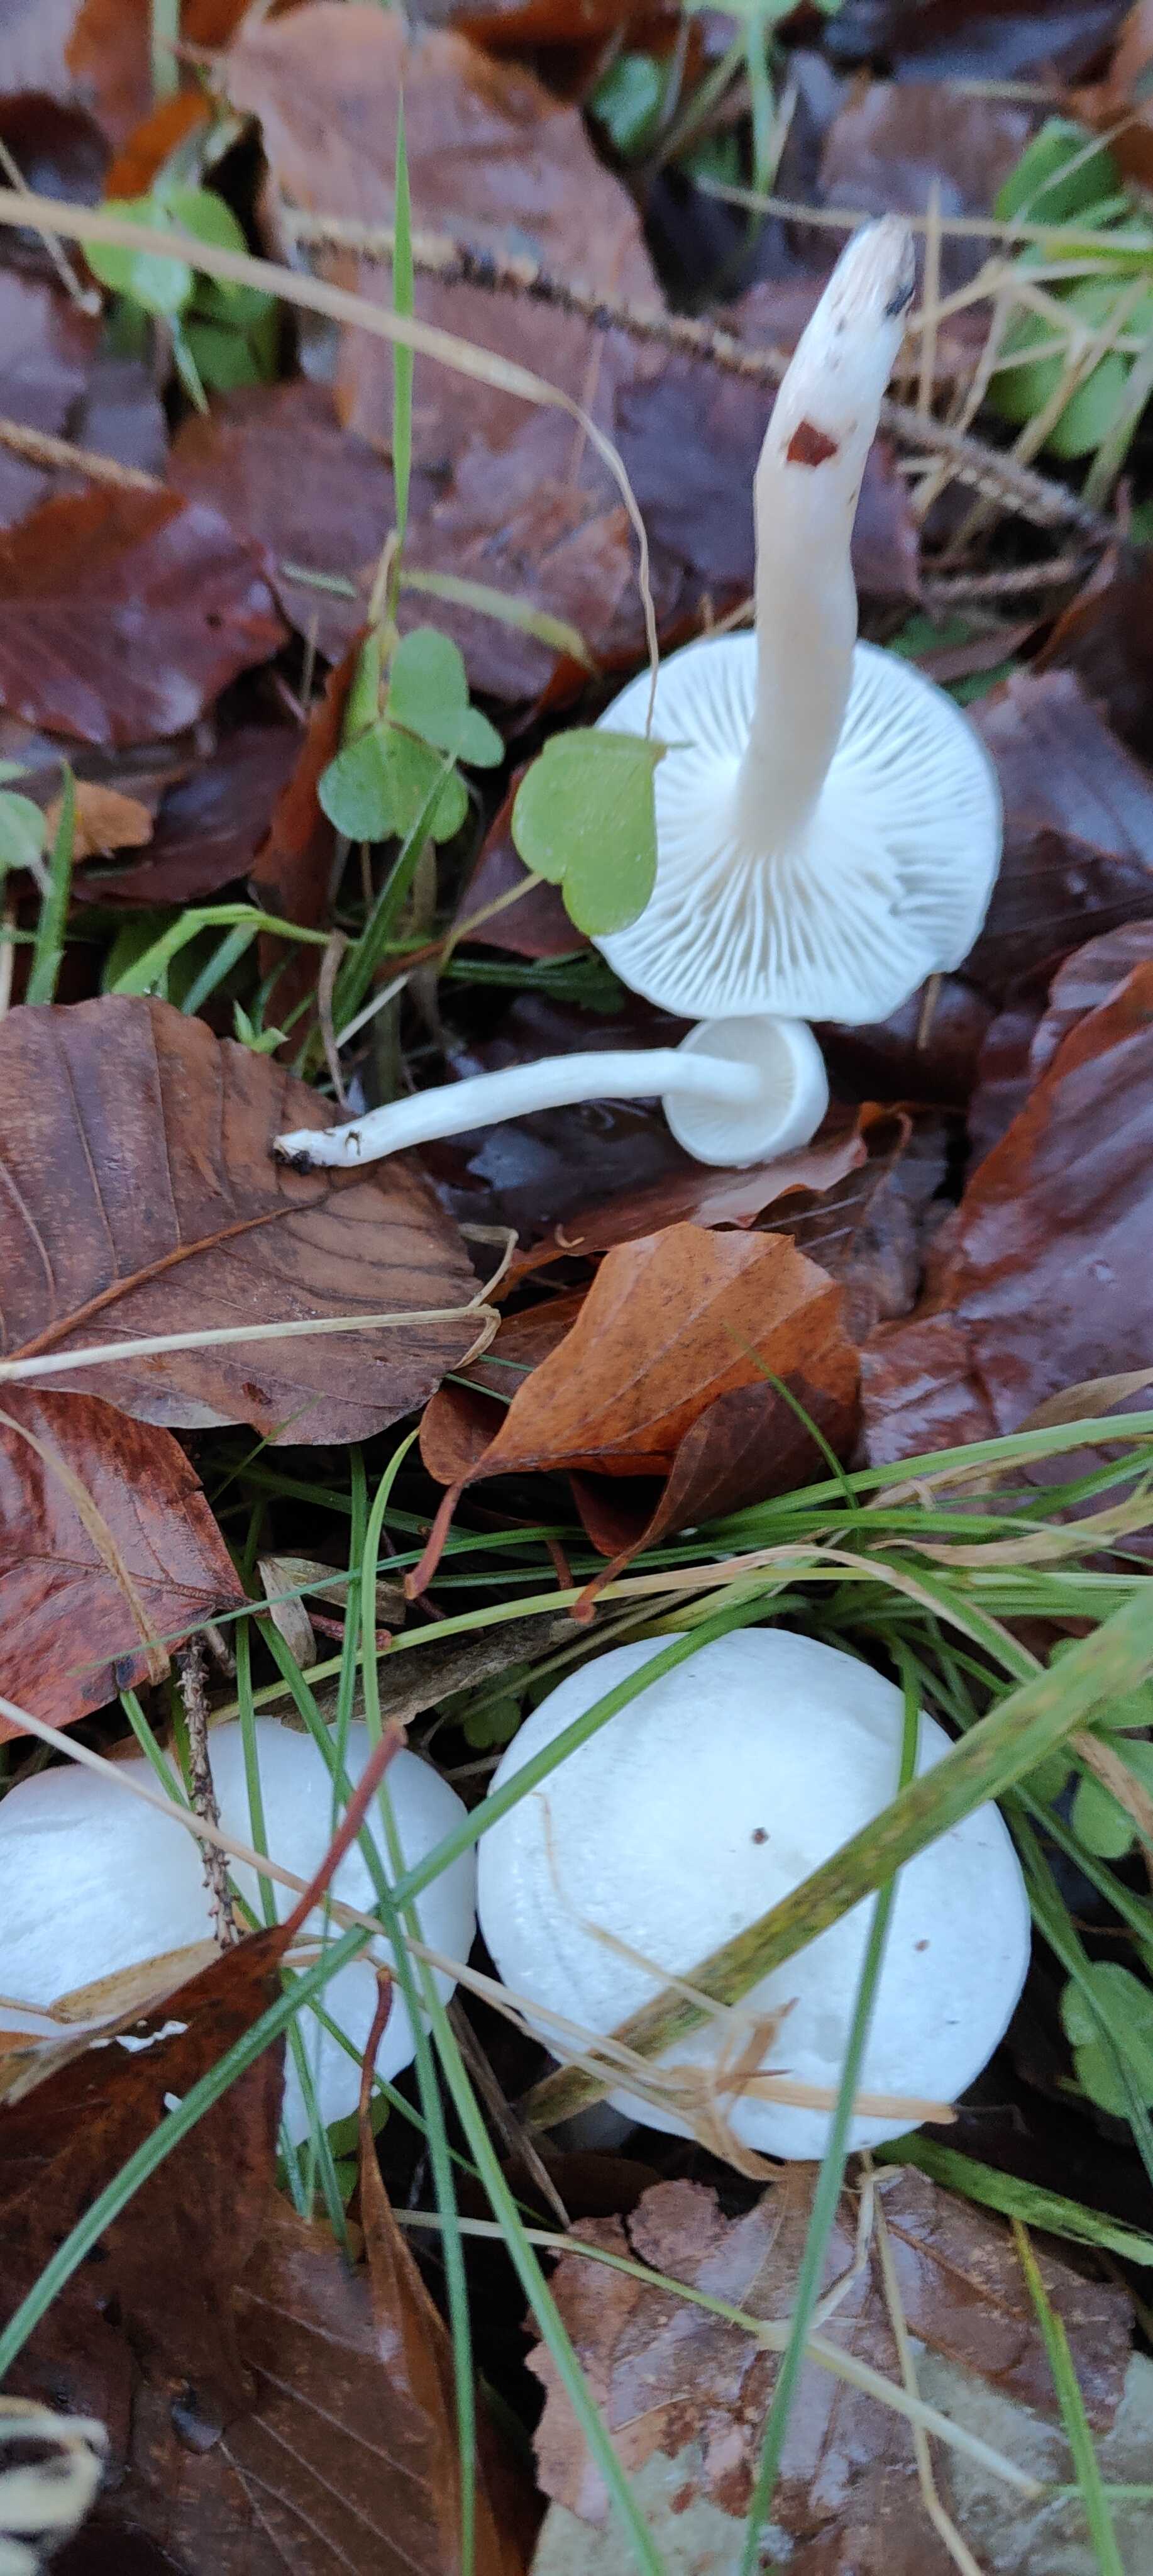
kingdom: Fungi
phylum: Basidiomycota
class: Agaricomycetes
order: Agaricales
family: Hygrophoraceae
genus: Hygrophorus
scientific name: Hygrophorus eburneus
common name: elfenbens-sneglehat
